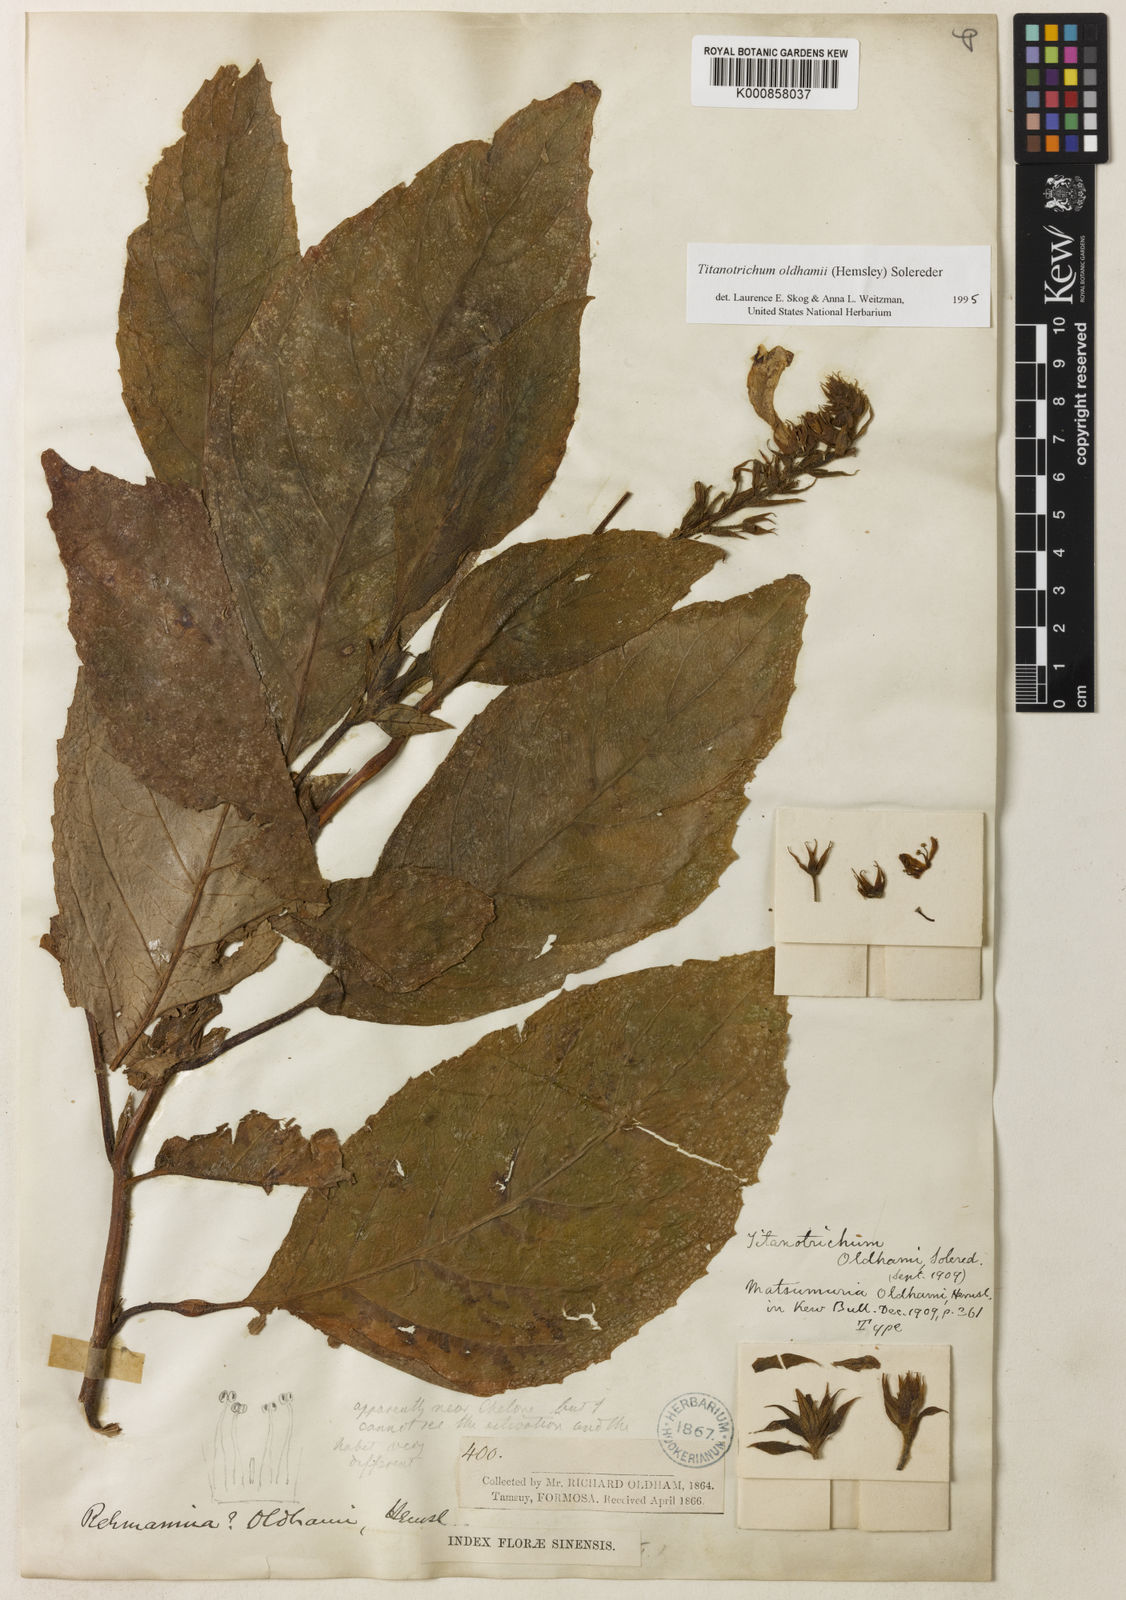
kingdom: Plantae
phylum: Tracheophyta
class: Magnoliopsida
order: Lamiales
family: Gesneriaceae
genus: Titanotrichum
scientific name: Titanotrichum oldhamii
